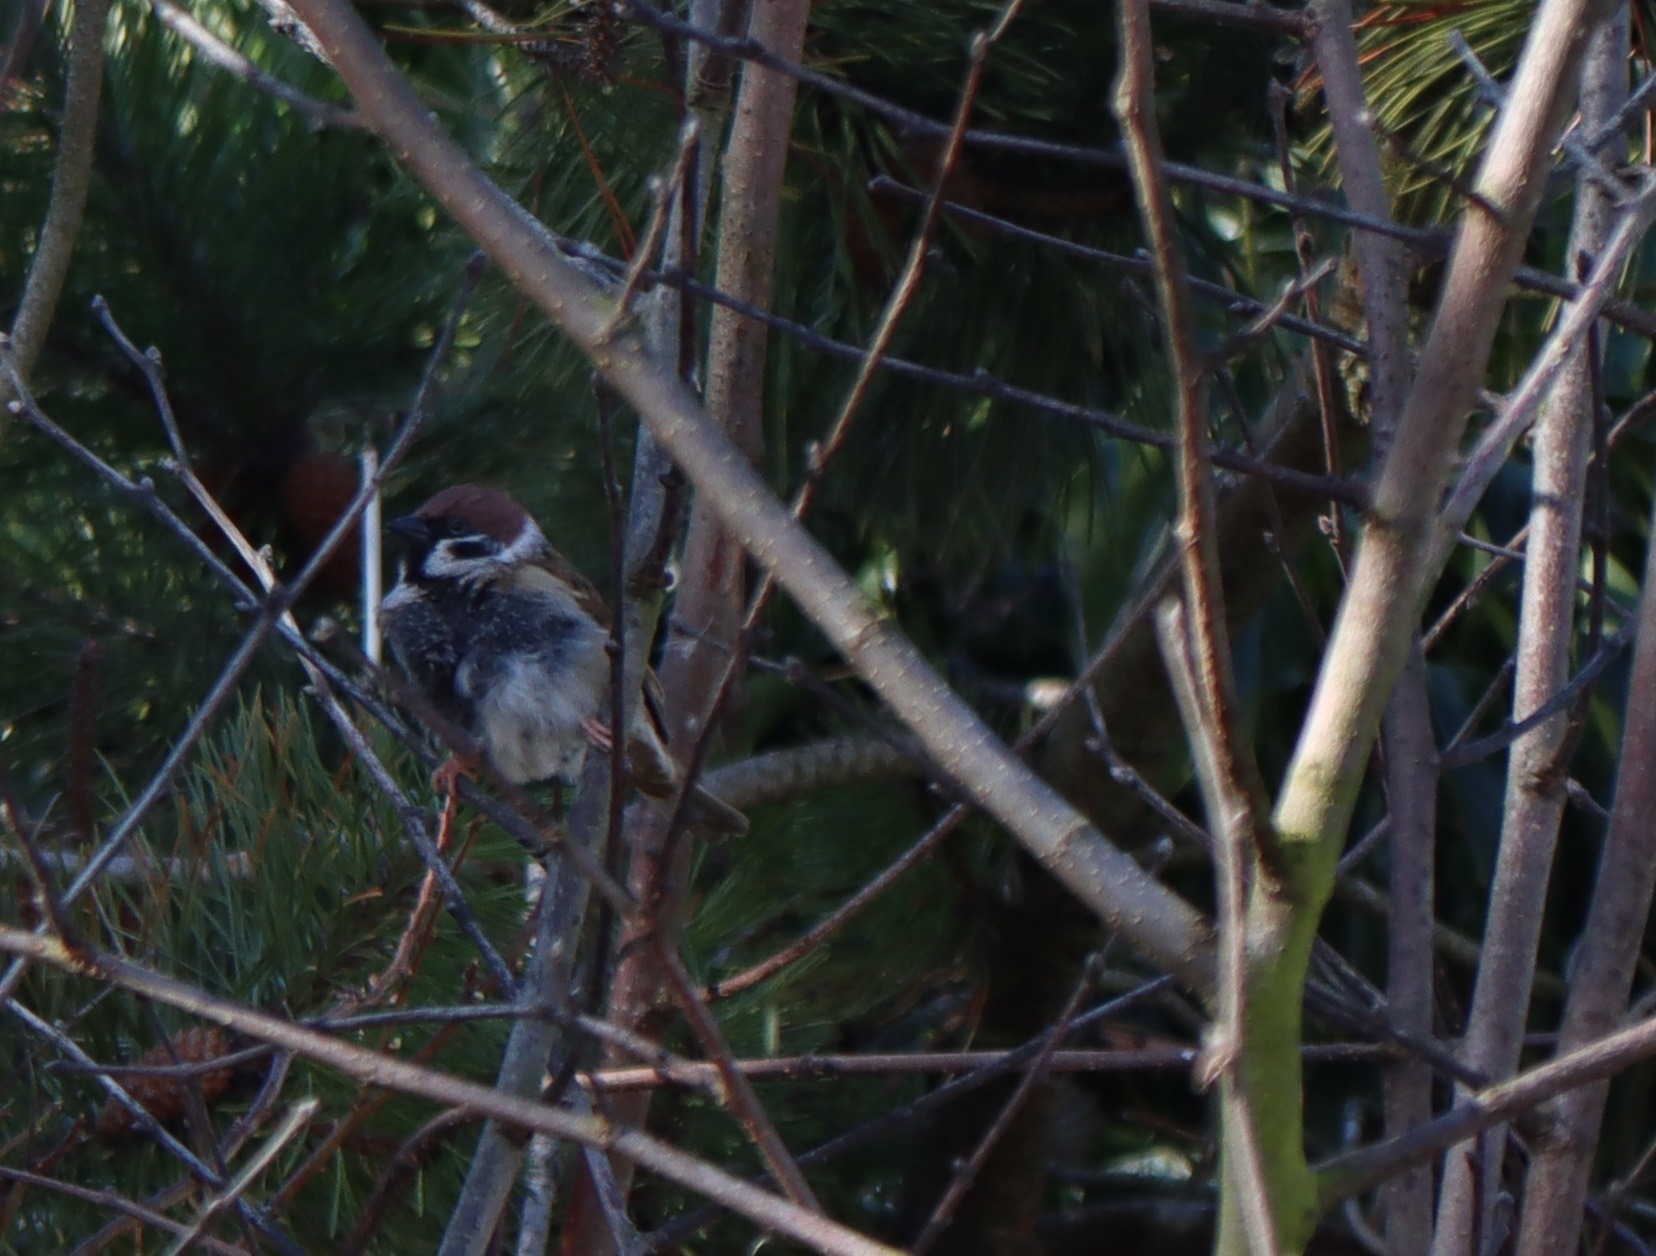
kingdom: Animalia
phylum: Chordata
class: Aves
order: Passeriformes
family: Passeridae
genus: Passer
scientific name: Passer montanus
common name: Skovspurv
